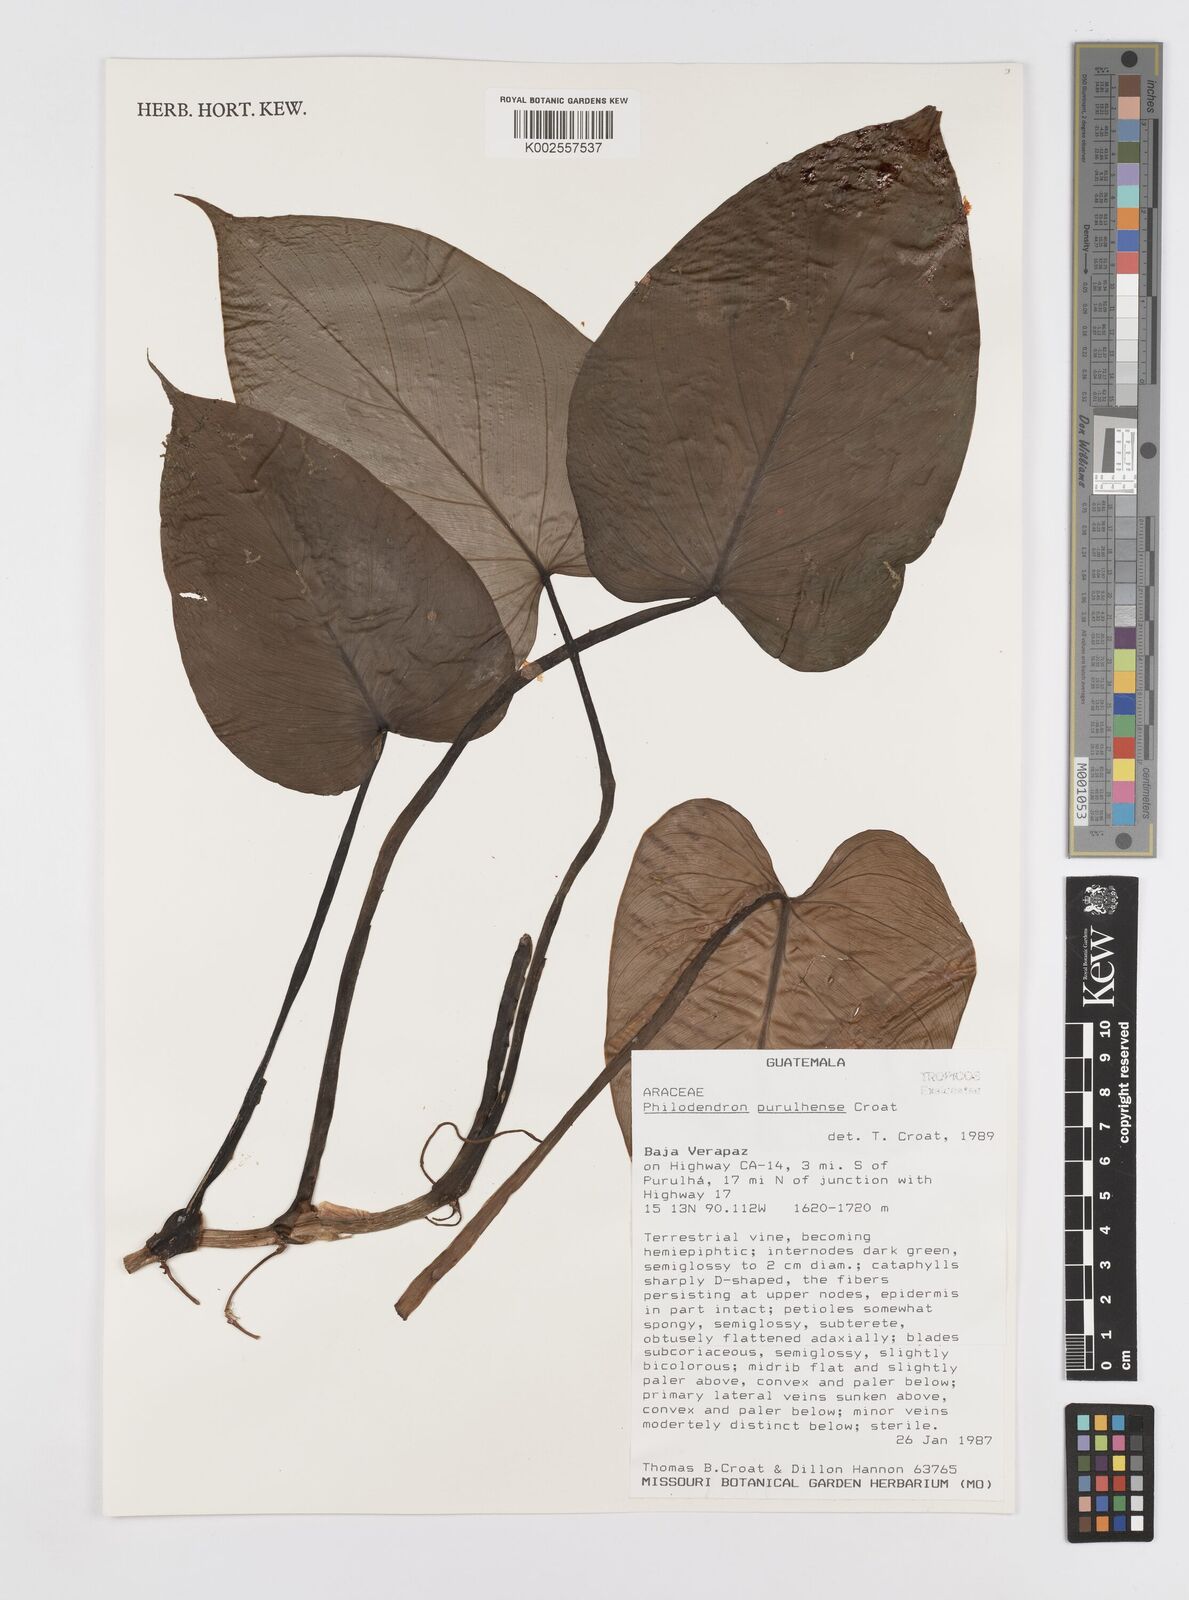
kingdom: Plantae
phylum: Tracheophyta
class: Liliopsida
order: Alismatales
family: Araceae
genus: Philodendron
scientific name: Philodendron purulhense
